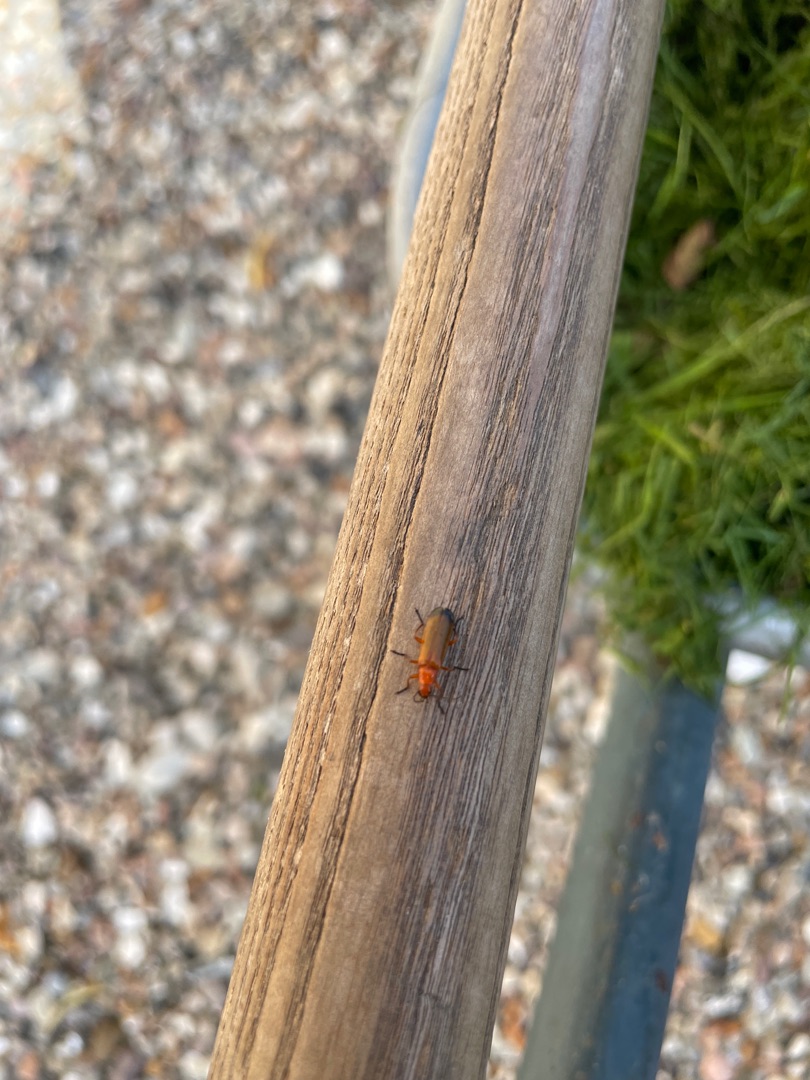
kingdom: Animalia
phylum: Arthropoda
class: Insecta
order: Coleoptera
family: Cantharidae
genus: Rhagonycha
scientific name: Rhagonycha fulva
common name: Præstebille
